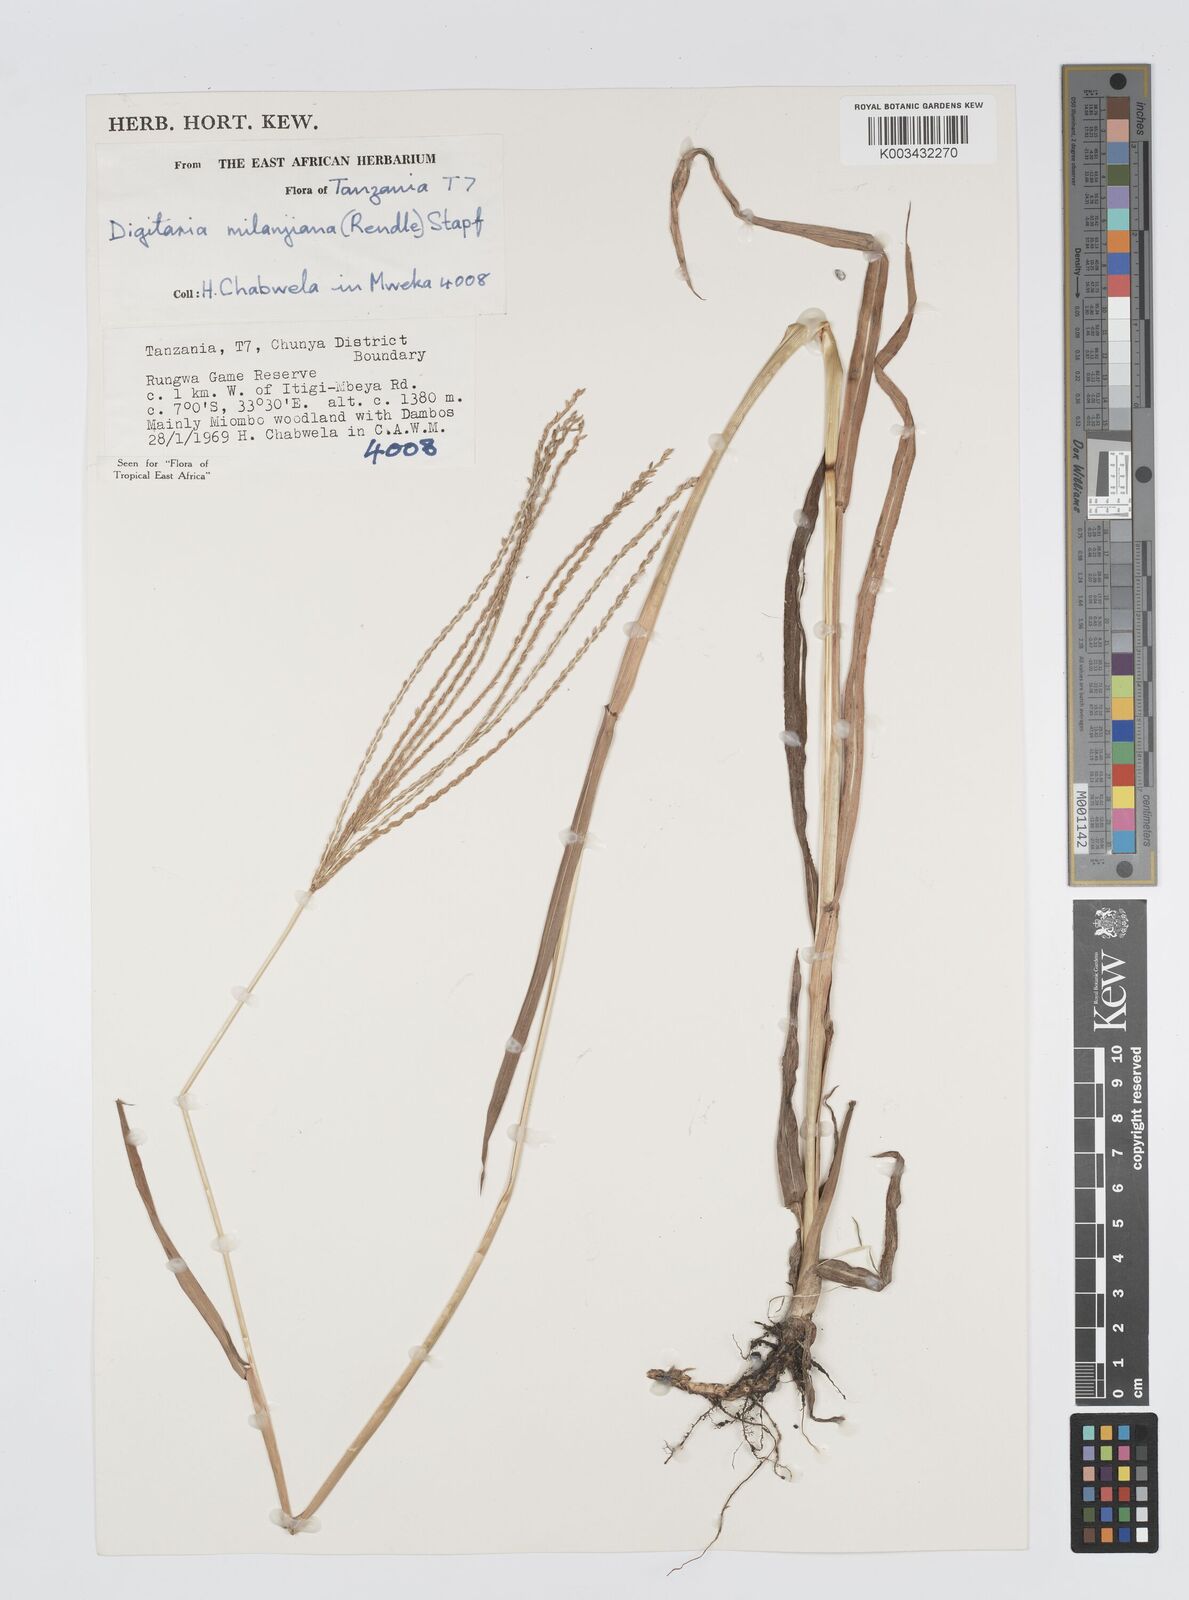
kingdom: Plantae
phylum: Tracheophyta
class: Liliopsida
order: Poales
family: Poaceae
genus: Digitaria
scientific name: Digitaria milanjiana
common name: Madagascar crabgrass
